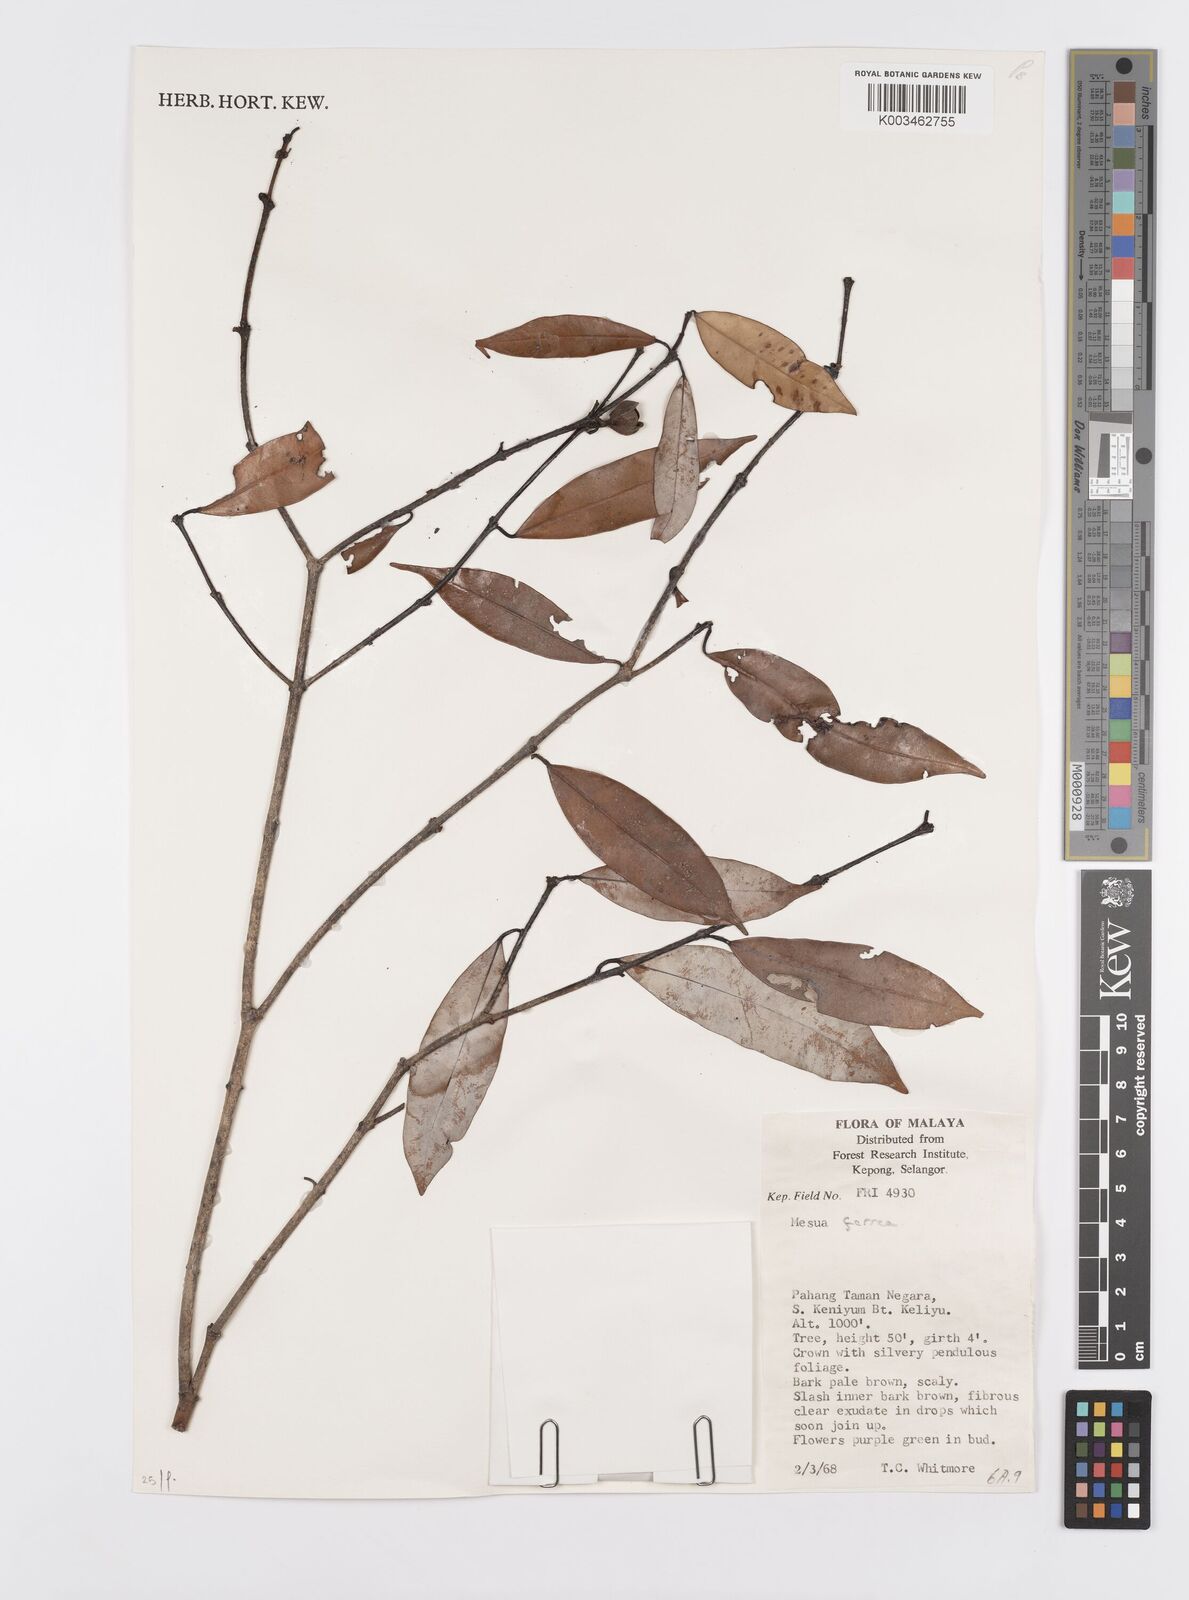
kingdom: Plantae
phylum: Tracheophyta
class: Magnoliopsida
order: Malpighiales
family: Calophyllaceae
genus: Mesua
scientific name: Mesua ferrea
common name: Mesua
